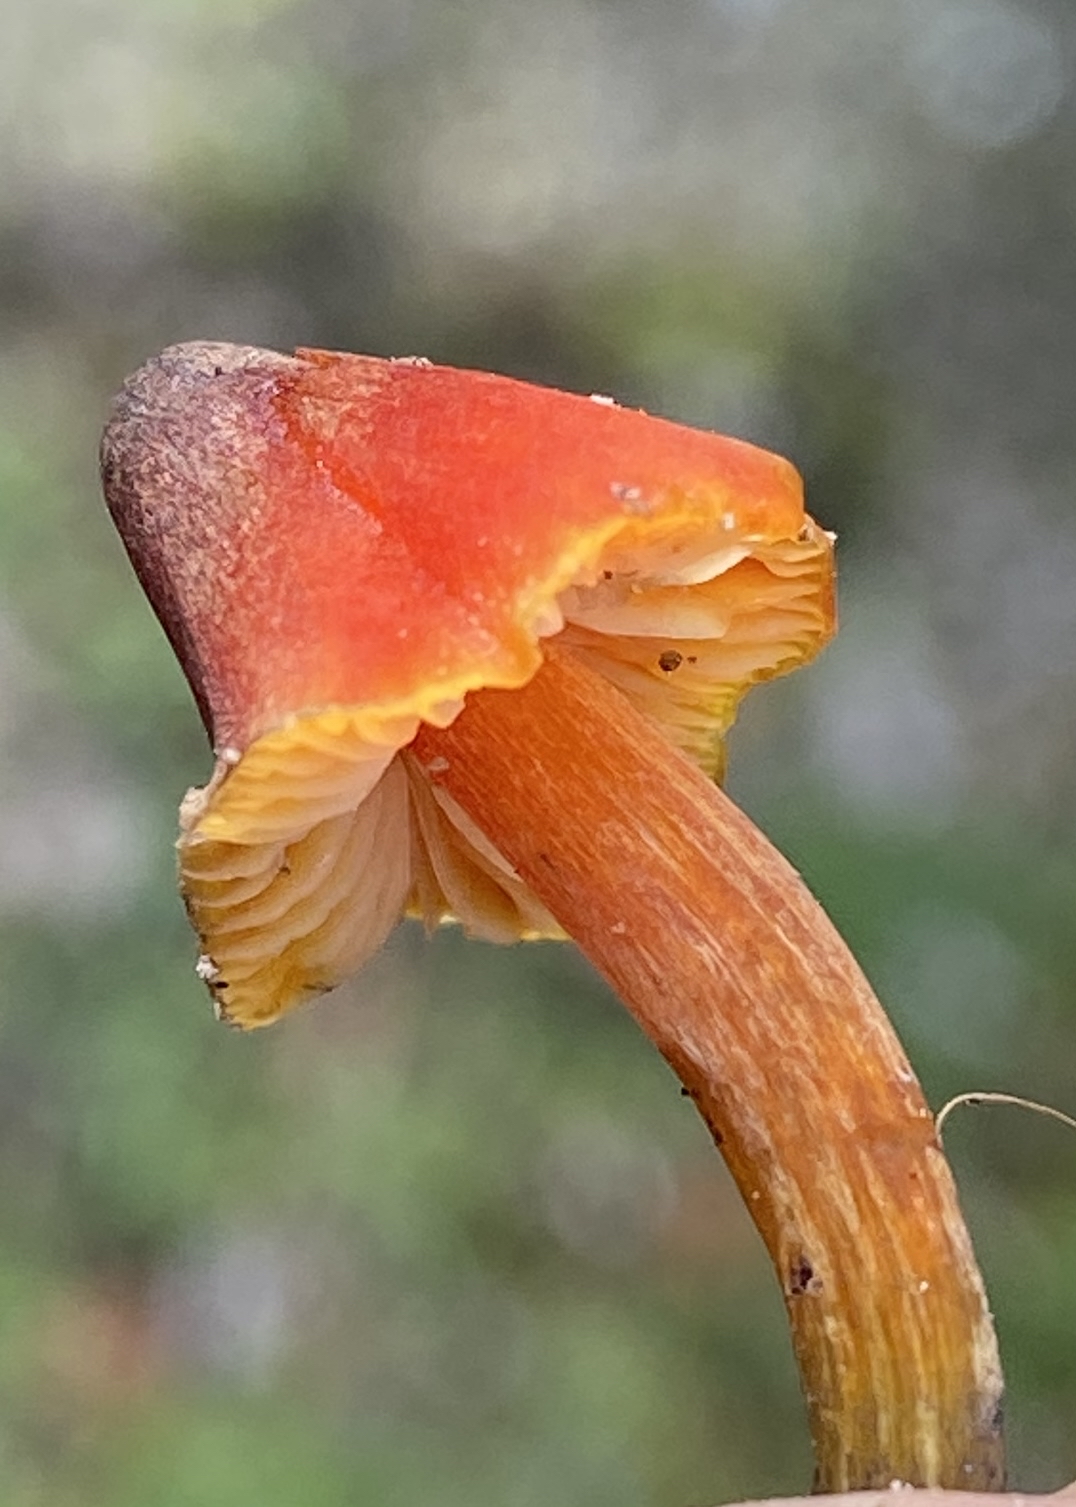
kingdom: Fungi
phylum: Basidiomycota
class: Agaricomycetes
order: Agaricales
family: Hygrophoraceae
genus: Hygrocybe
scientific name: Hygrocybe conica
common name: kegle-vokshat
